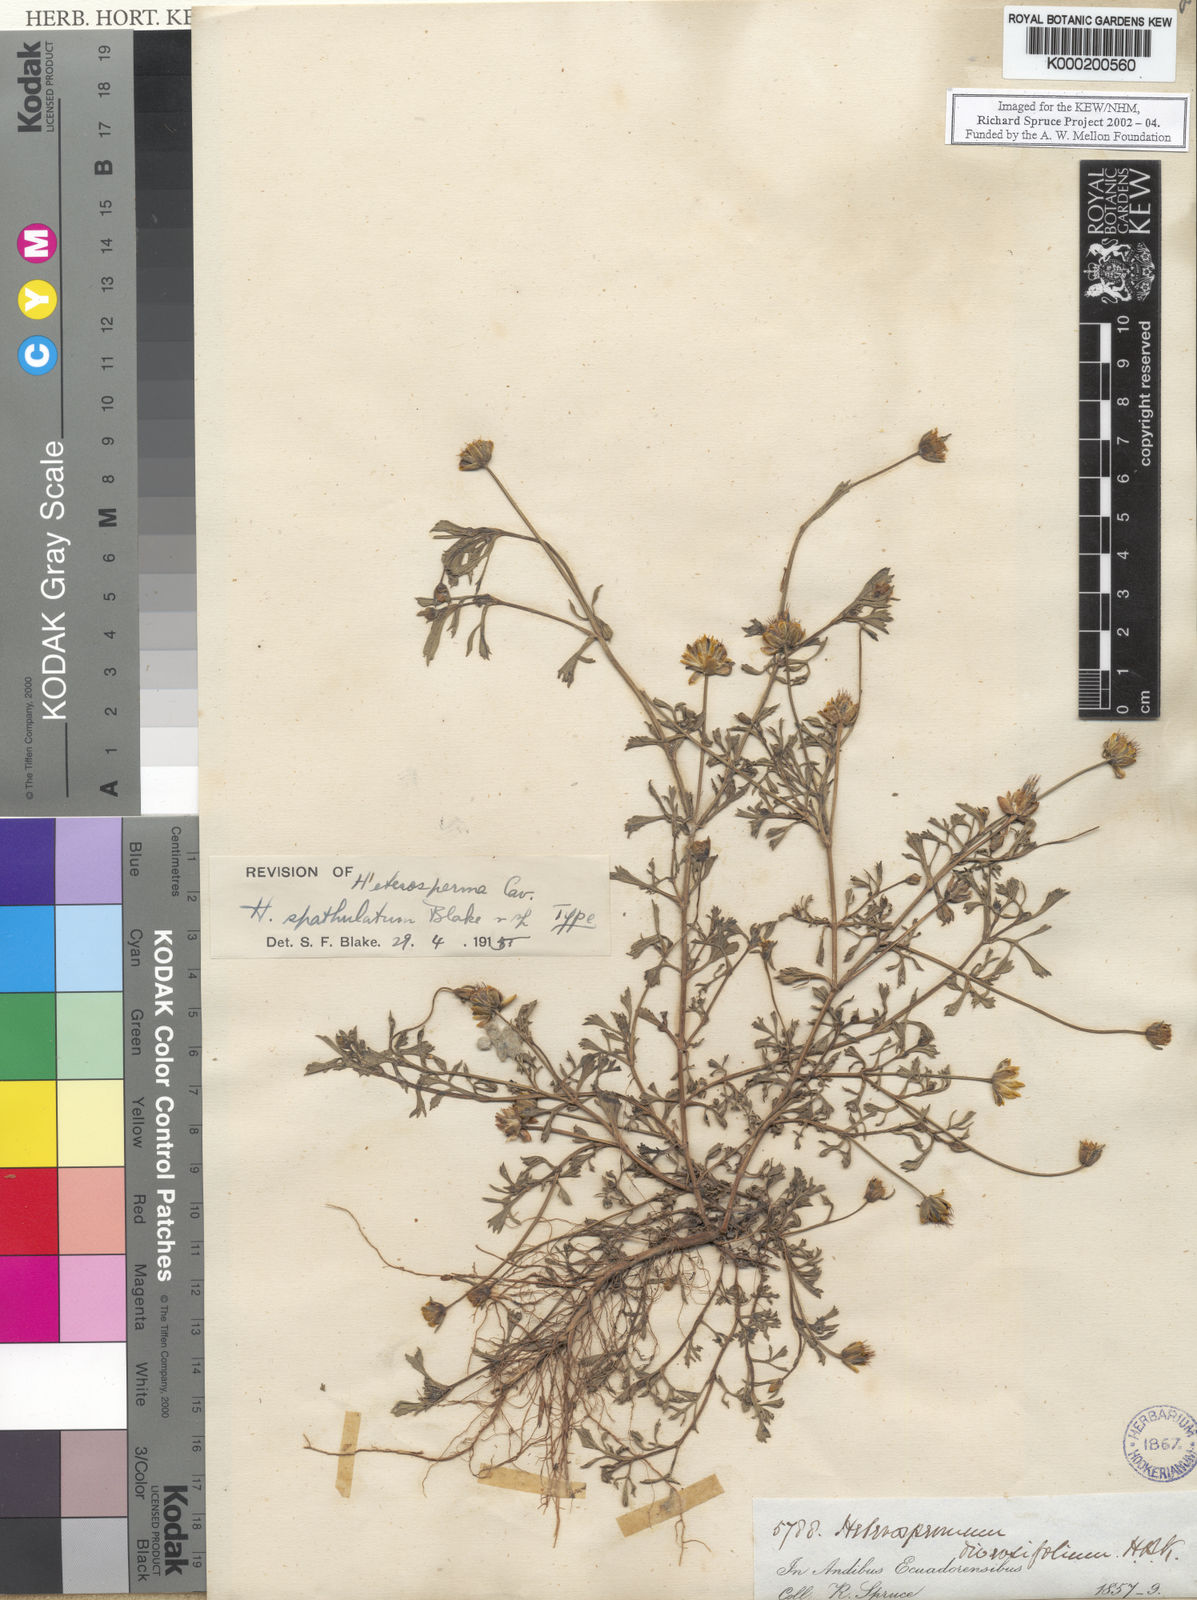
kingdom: Plantae
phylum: Tracheophyta
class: Magnoliopsida
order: Asterales
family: Asteraceae
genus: Heterosperma
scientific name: Heterosperma diversifolium
